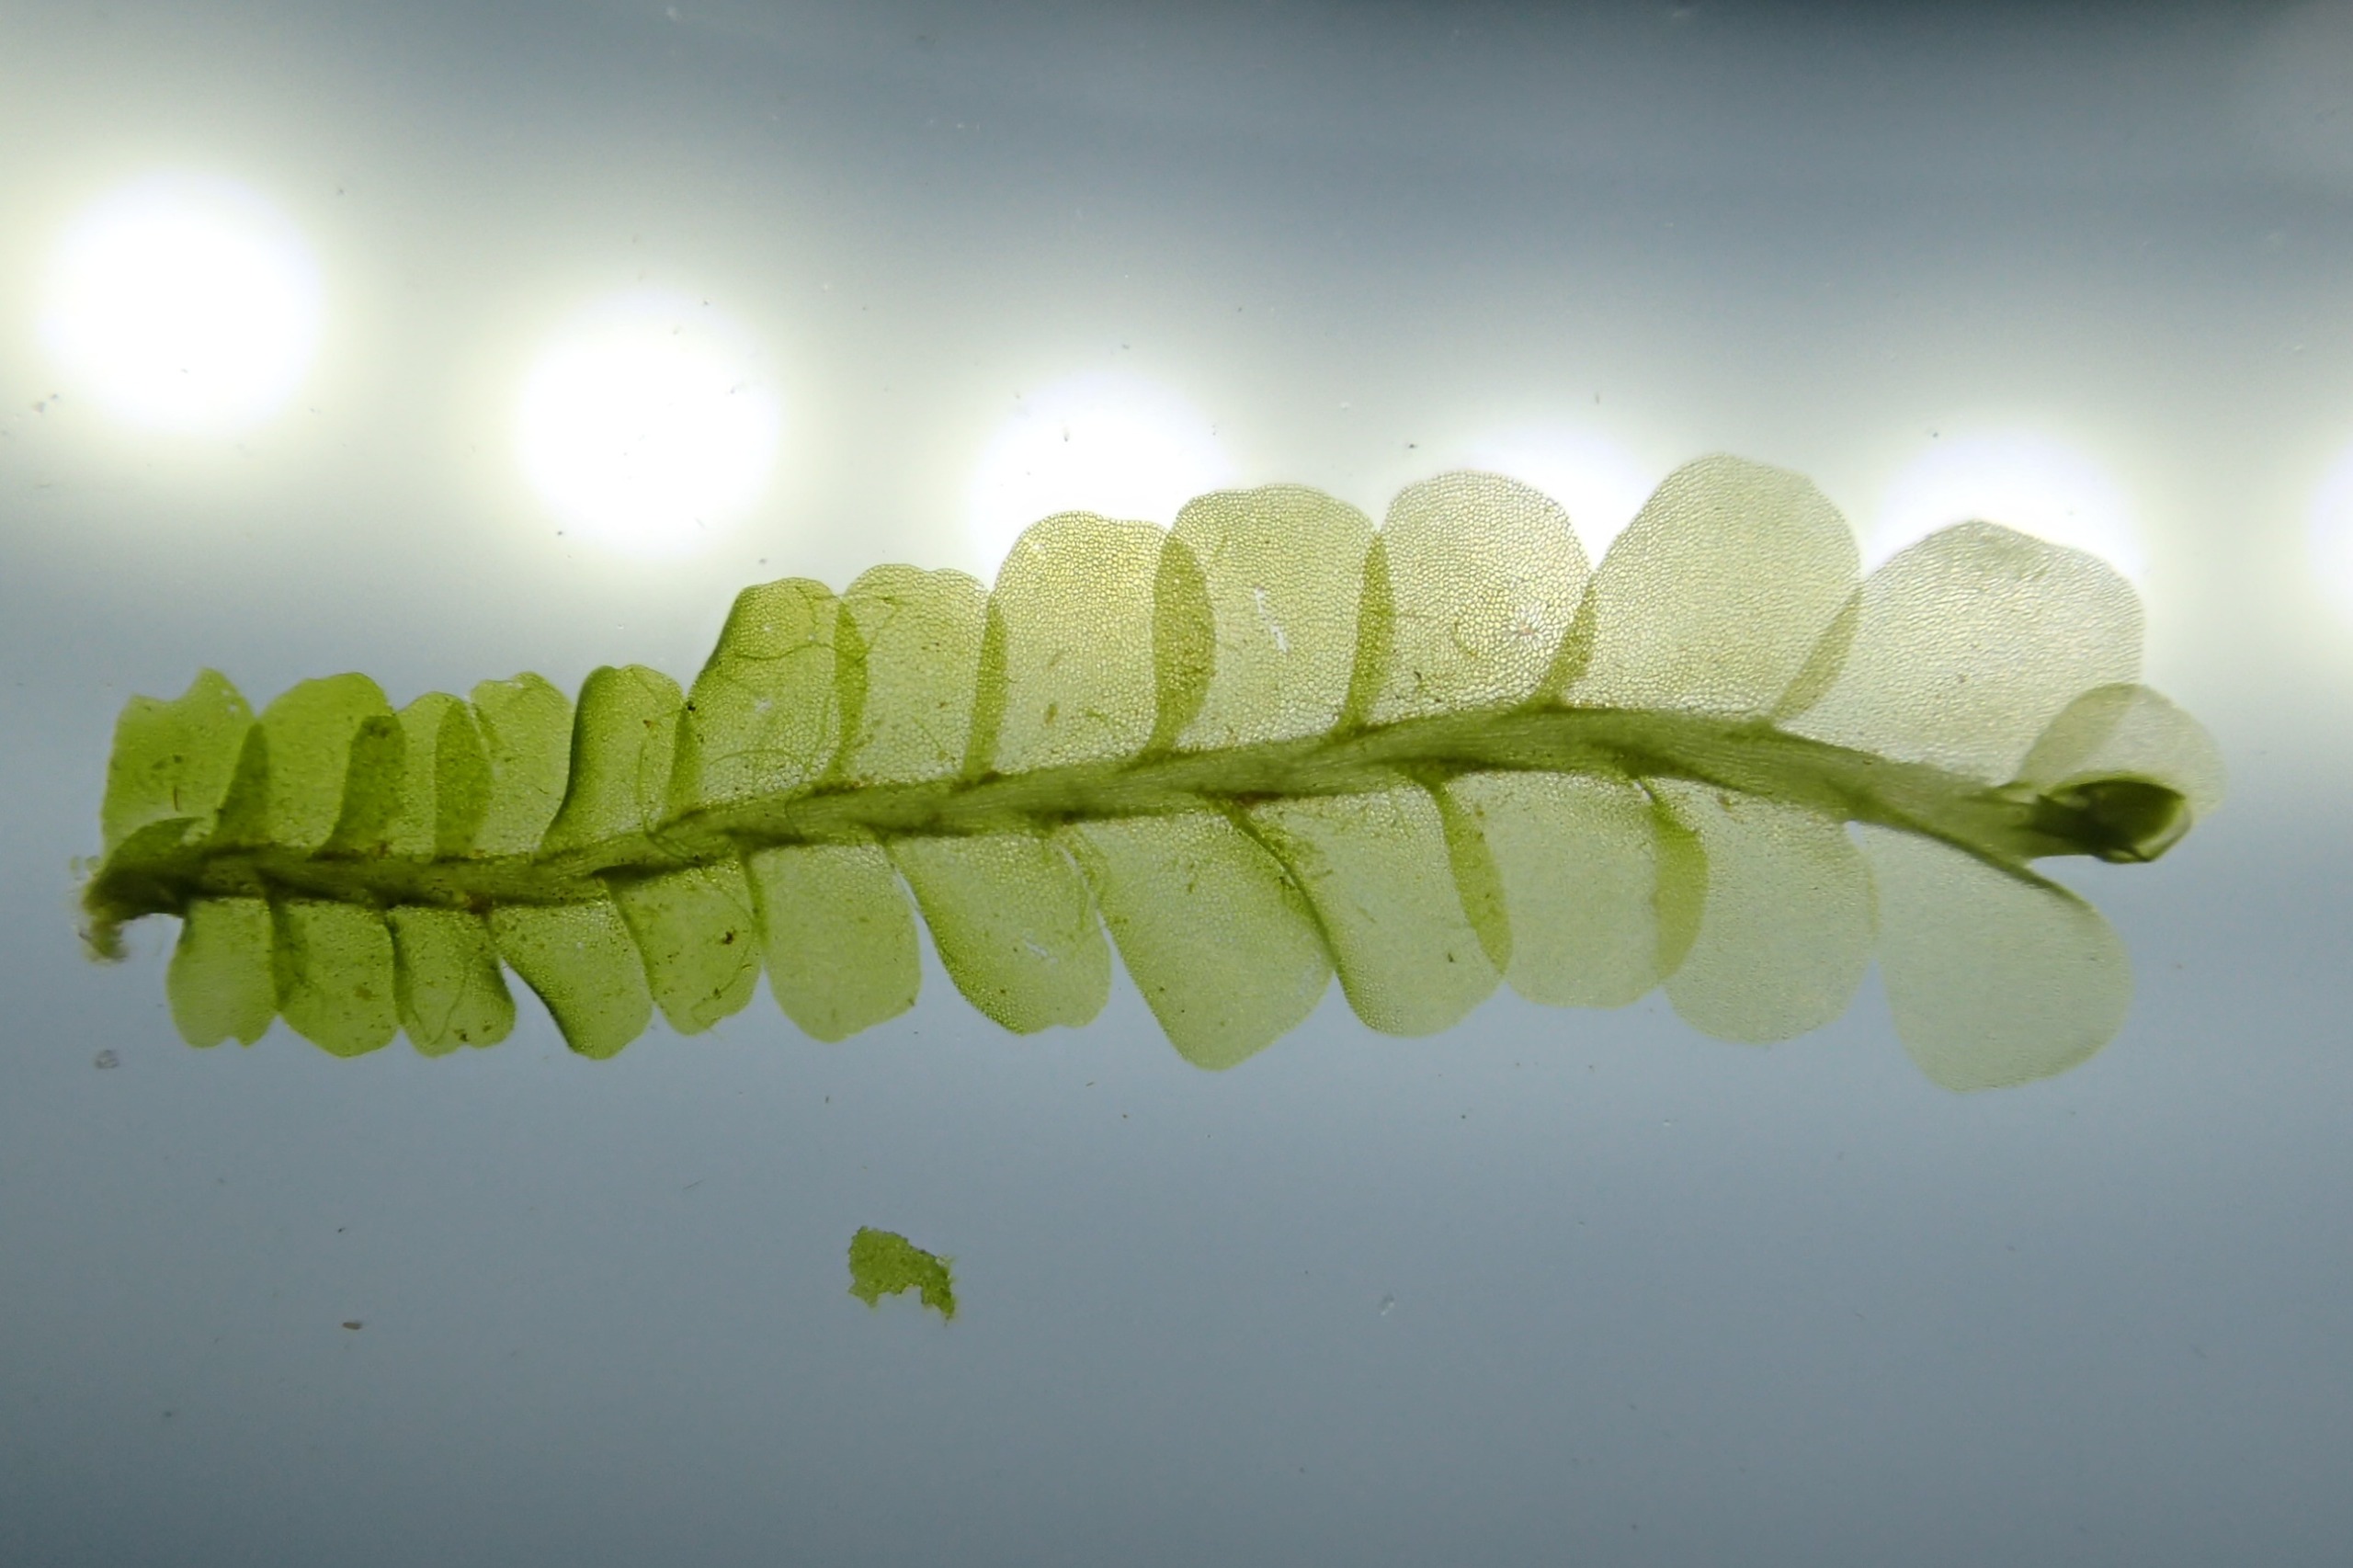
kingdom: Plantae
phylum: Marchantiophyta
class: Jungermanniopsida
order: Jungermanniales
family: Lophocoleaceae
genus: Chiloscyphus
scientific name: Chiloscyphus polyanthos
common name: Almindelig læbemund
